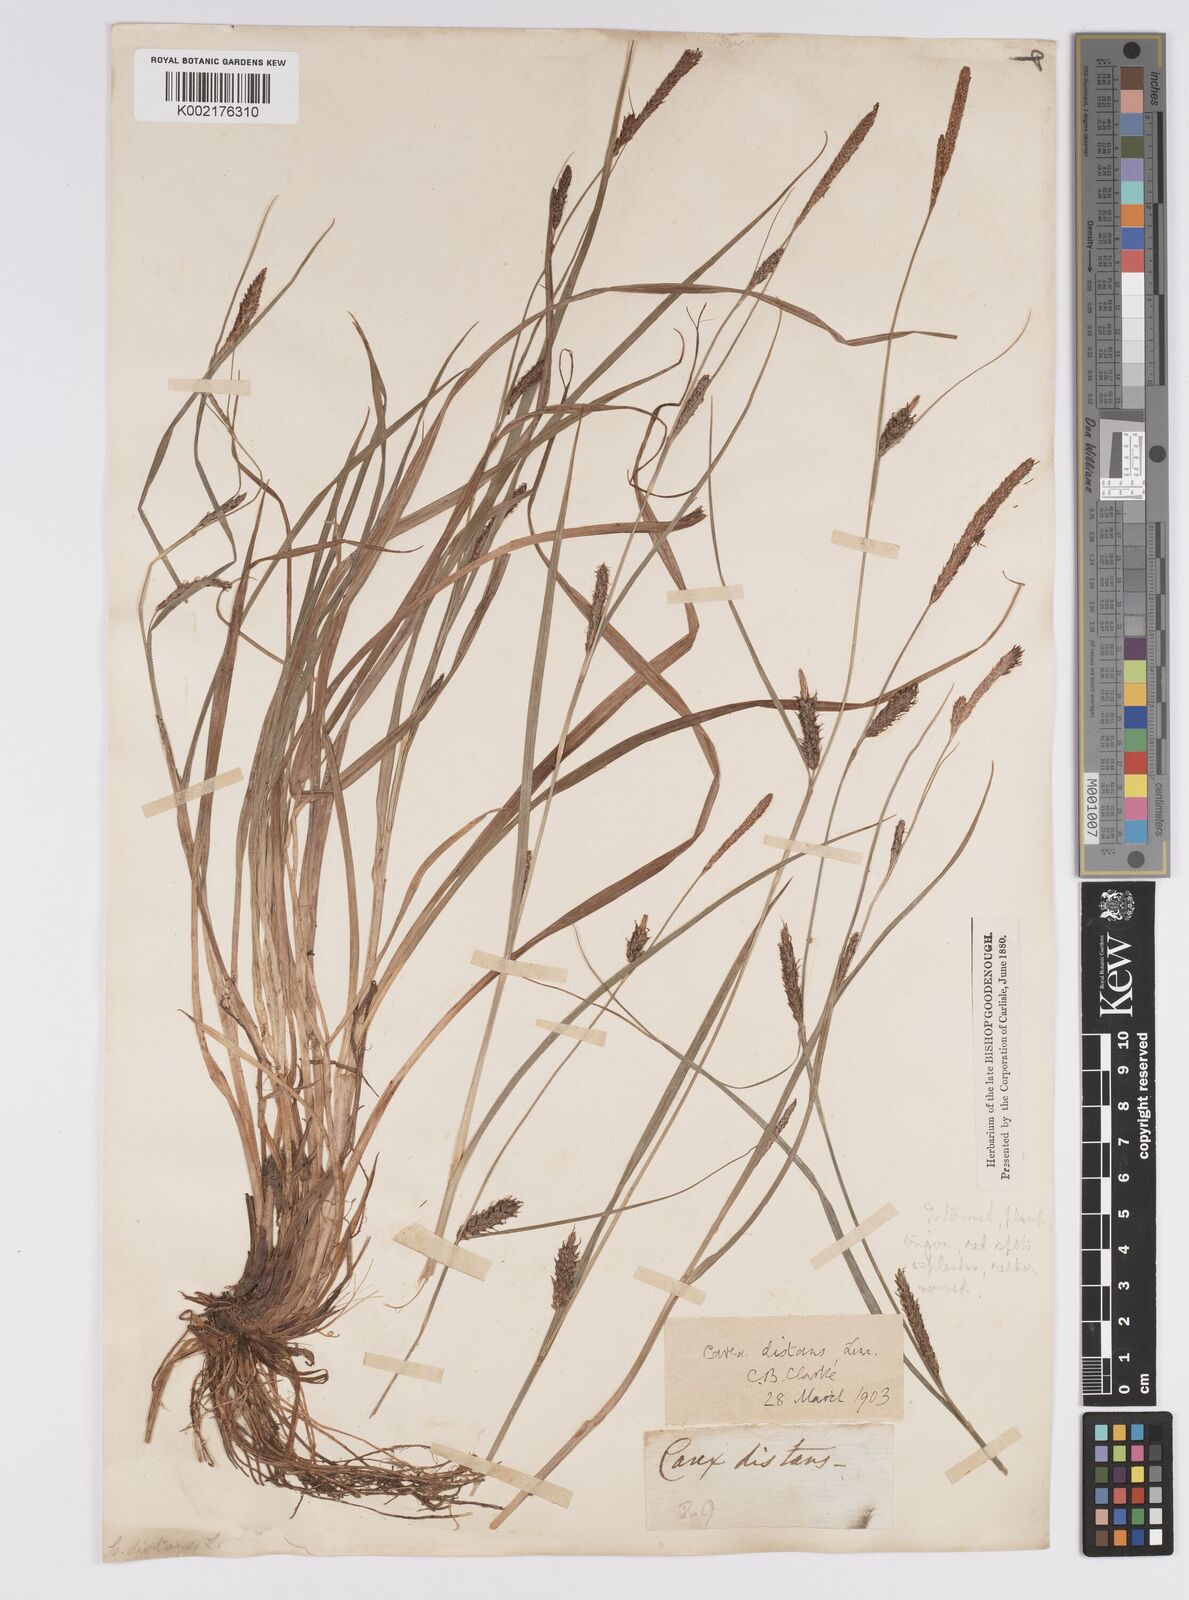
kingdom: Plantae
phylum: Tracheophyta
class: Liliopsida
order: Poales
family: Cyperaceae
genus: Carex
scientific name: Carex distans
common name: Distant sedge
